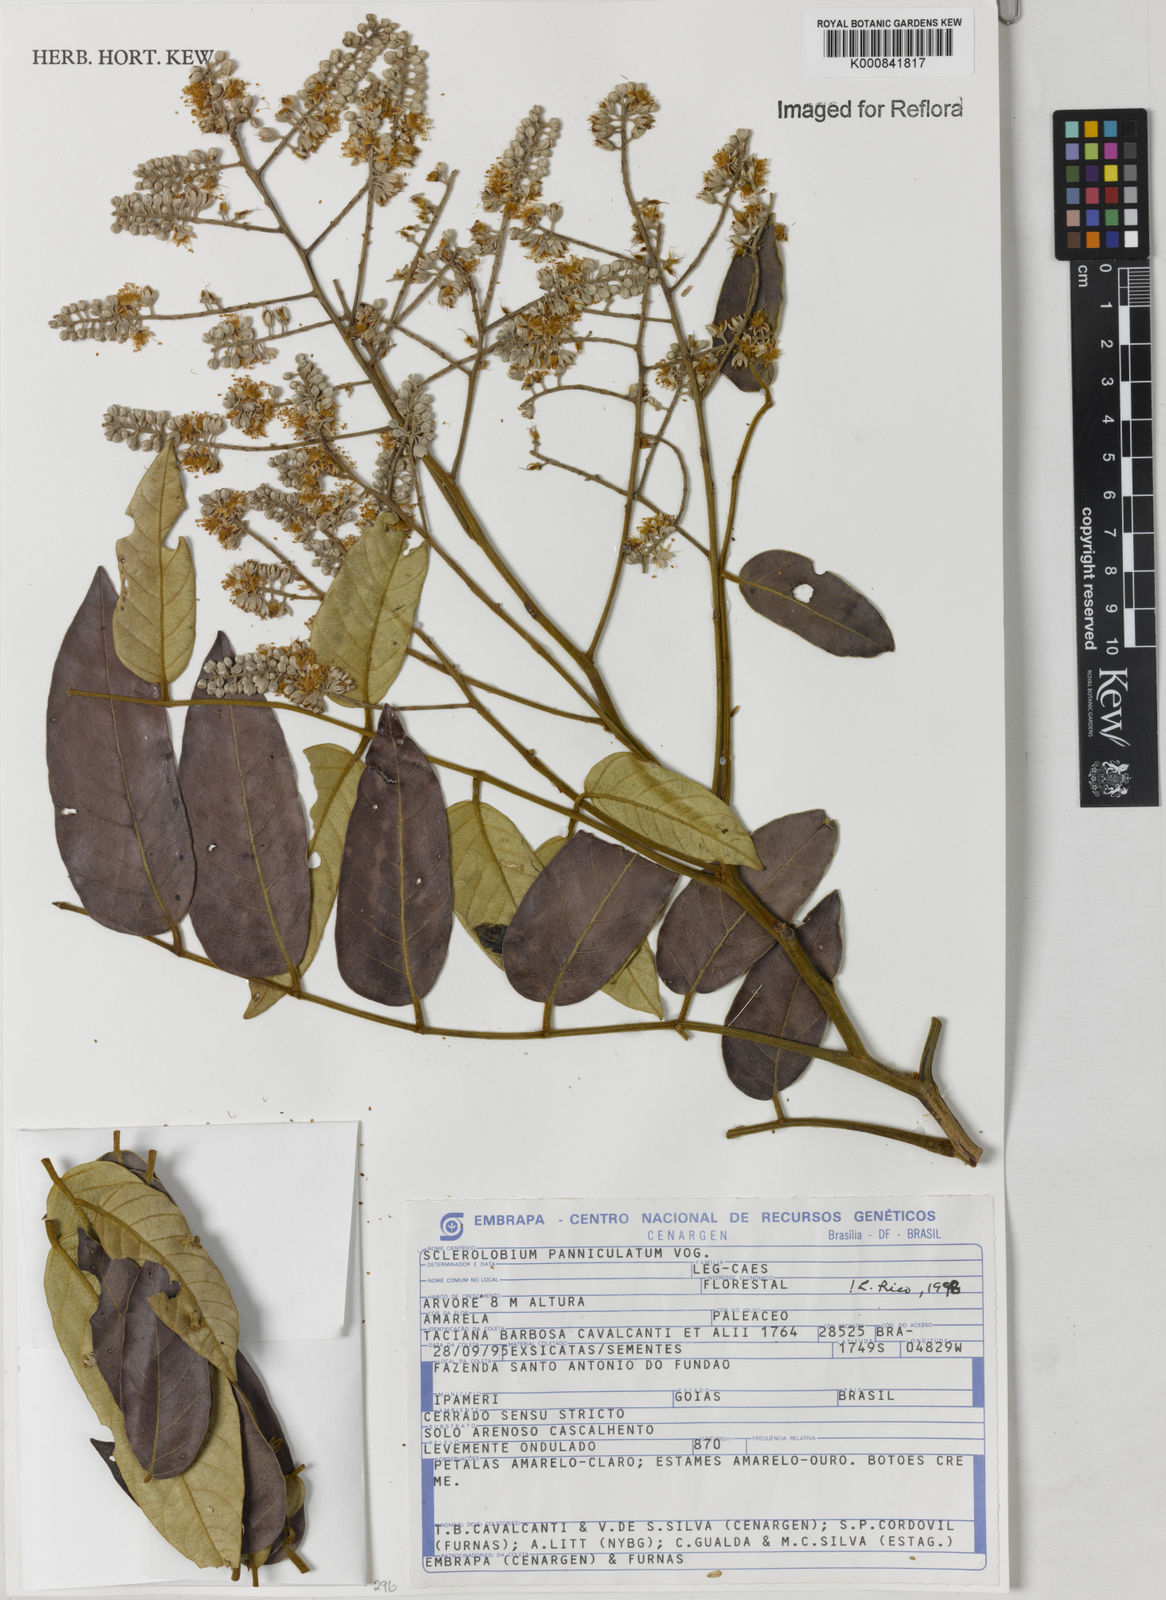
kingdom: Plantae
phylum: Tracheophyta
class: Magnoliopsida
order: Fabales
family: Fabaceae
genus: Tachigali
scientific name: Tachigali subvelutina
